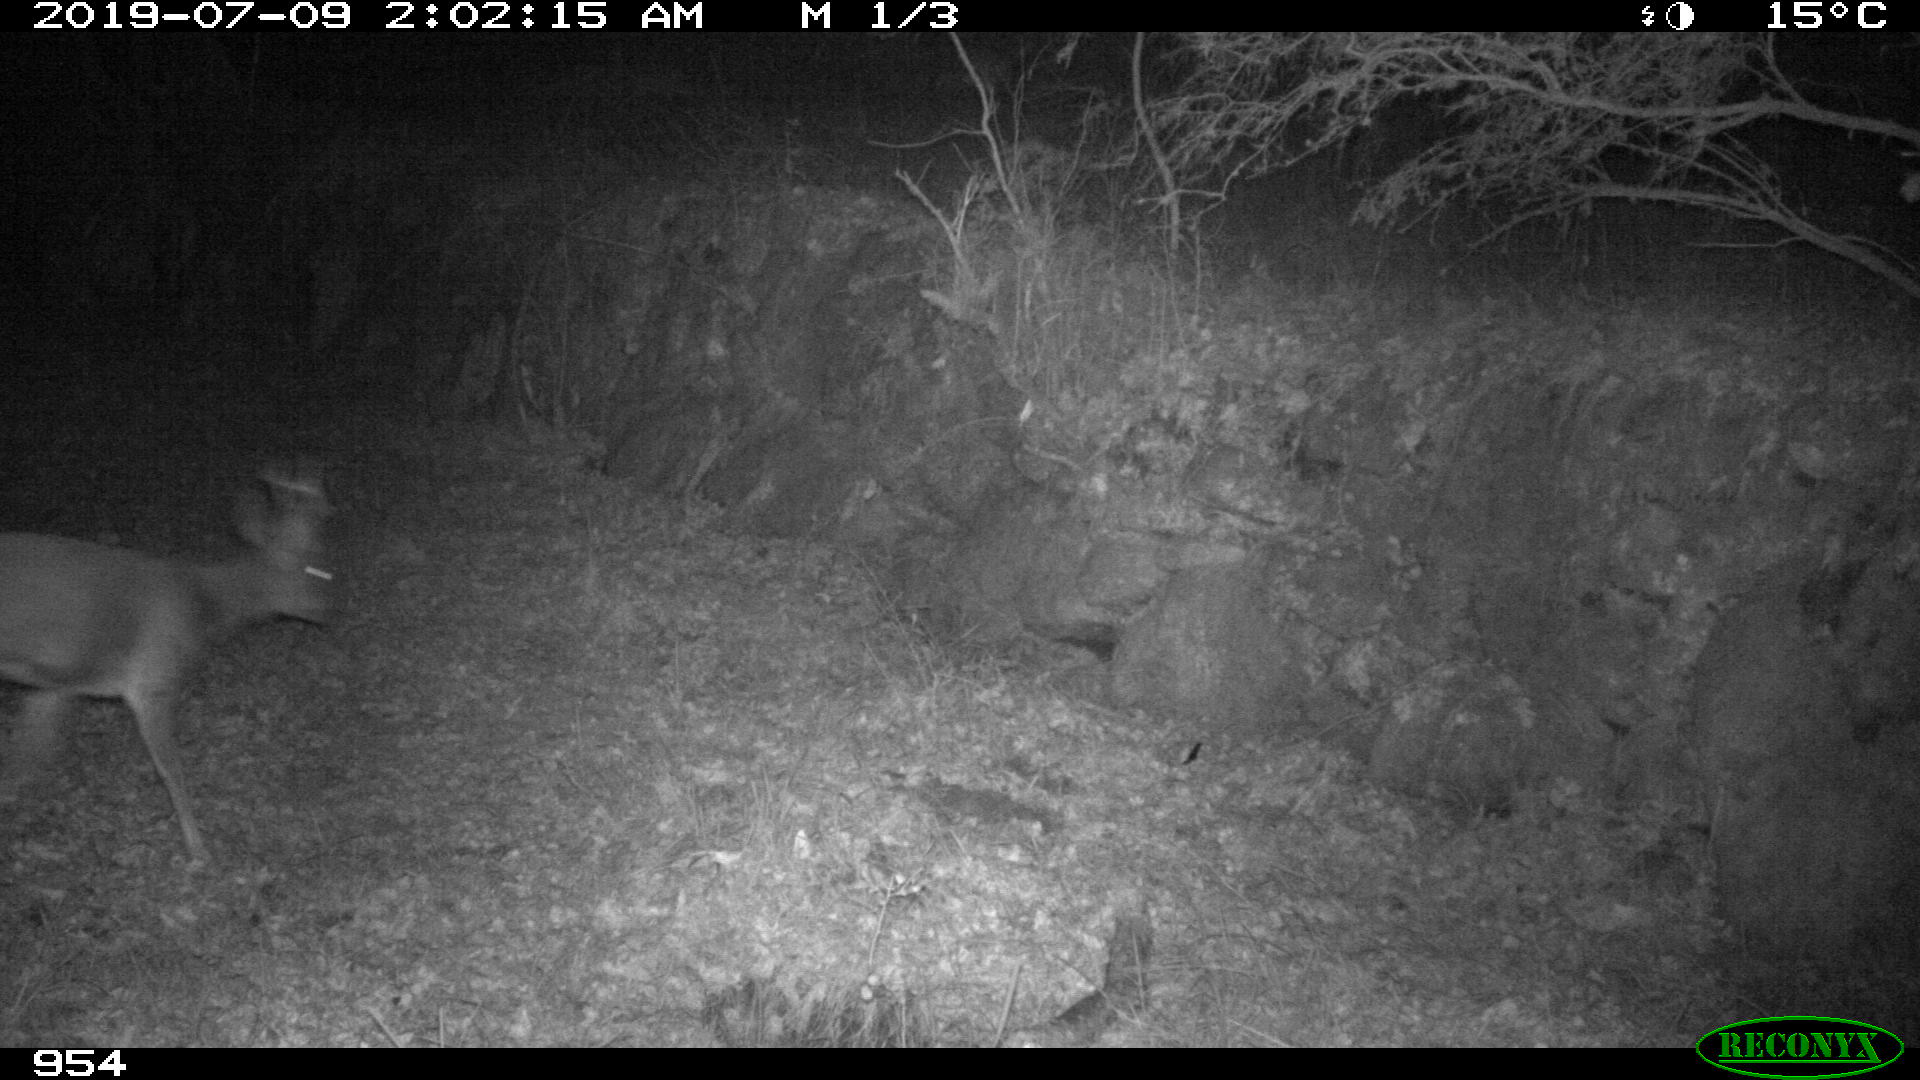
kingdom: Animalia
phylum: Chordata
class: Mammalia
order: Artiodactyla
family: Cervidae
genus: Capreolus
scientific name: Capreolus capreolus
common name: Western roe deer
